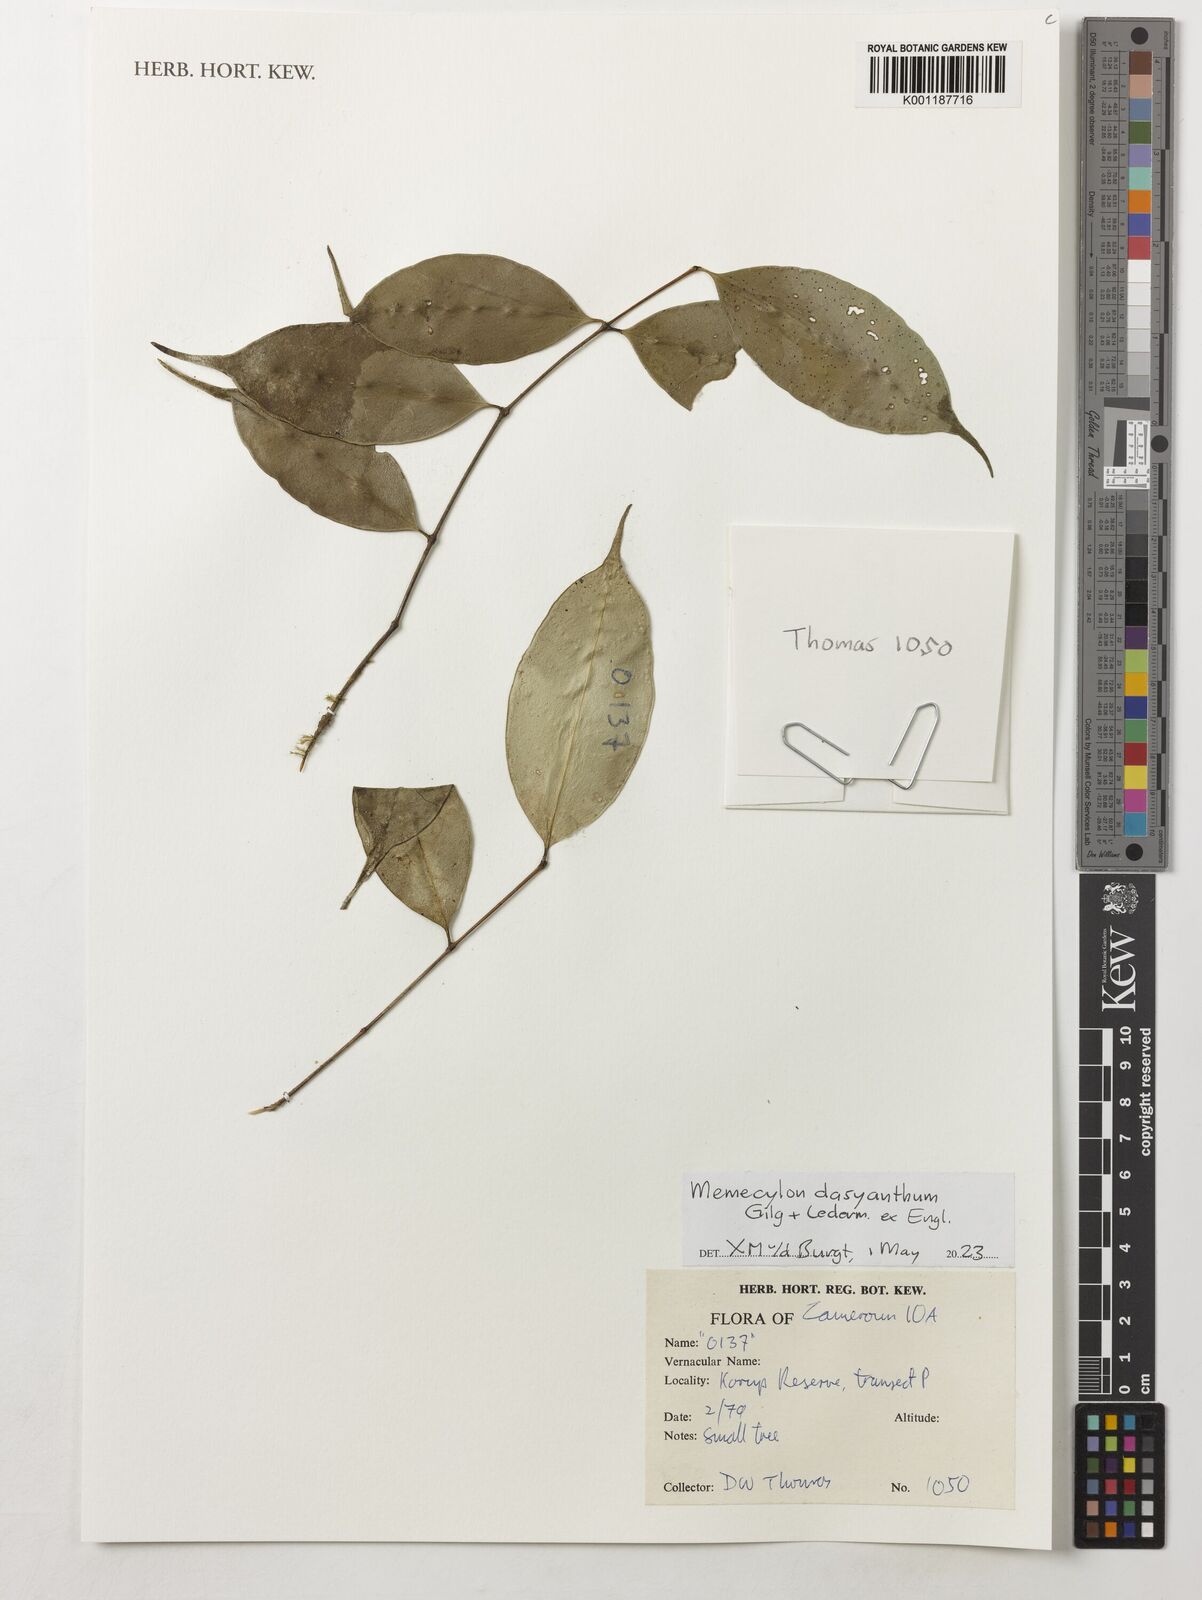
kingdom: Plantae
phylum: Tracheophyta
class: Magnoliopsida
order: Myrtales
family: Melastomataceae
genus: Memecylon
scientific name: Memecylon dasyanthum
